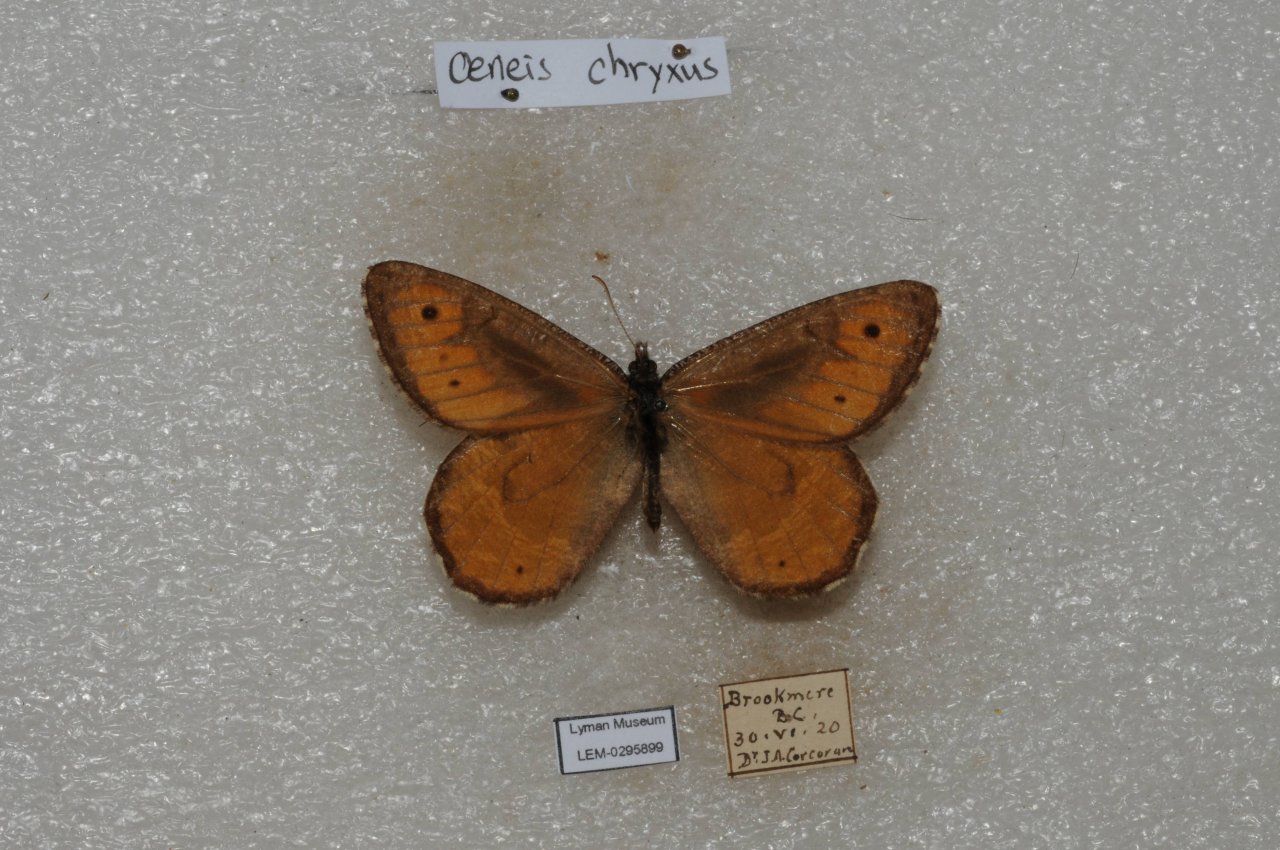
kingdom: Animalia
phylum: Arthropoda
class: Insecta
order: Lepidoptera
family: Nymphalidae
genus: Oeneis
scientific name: Oeneis chryxus
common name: Chryxus Arctic
